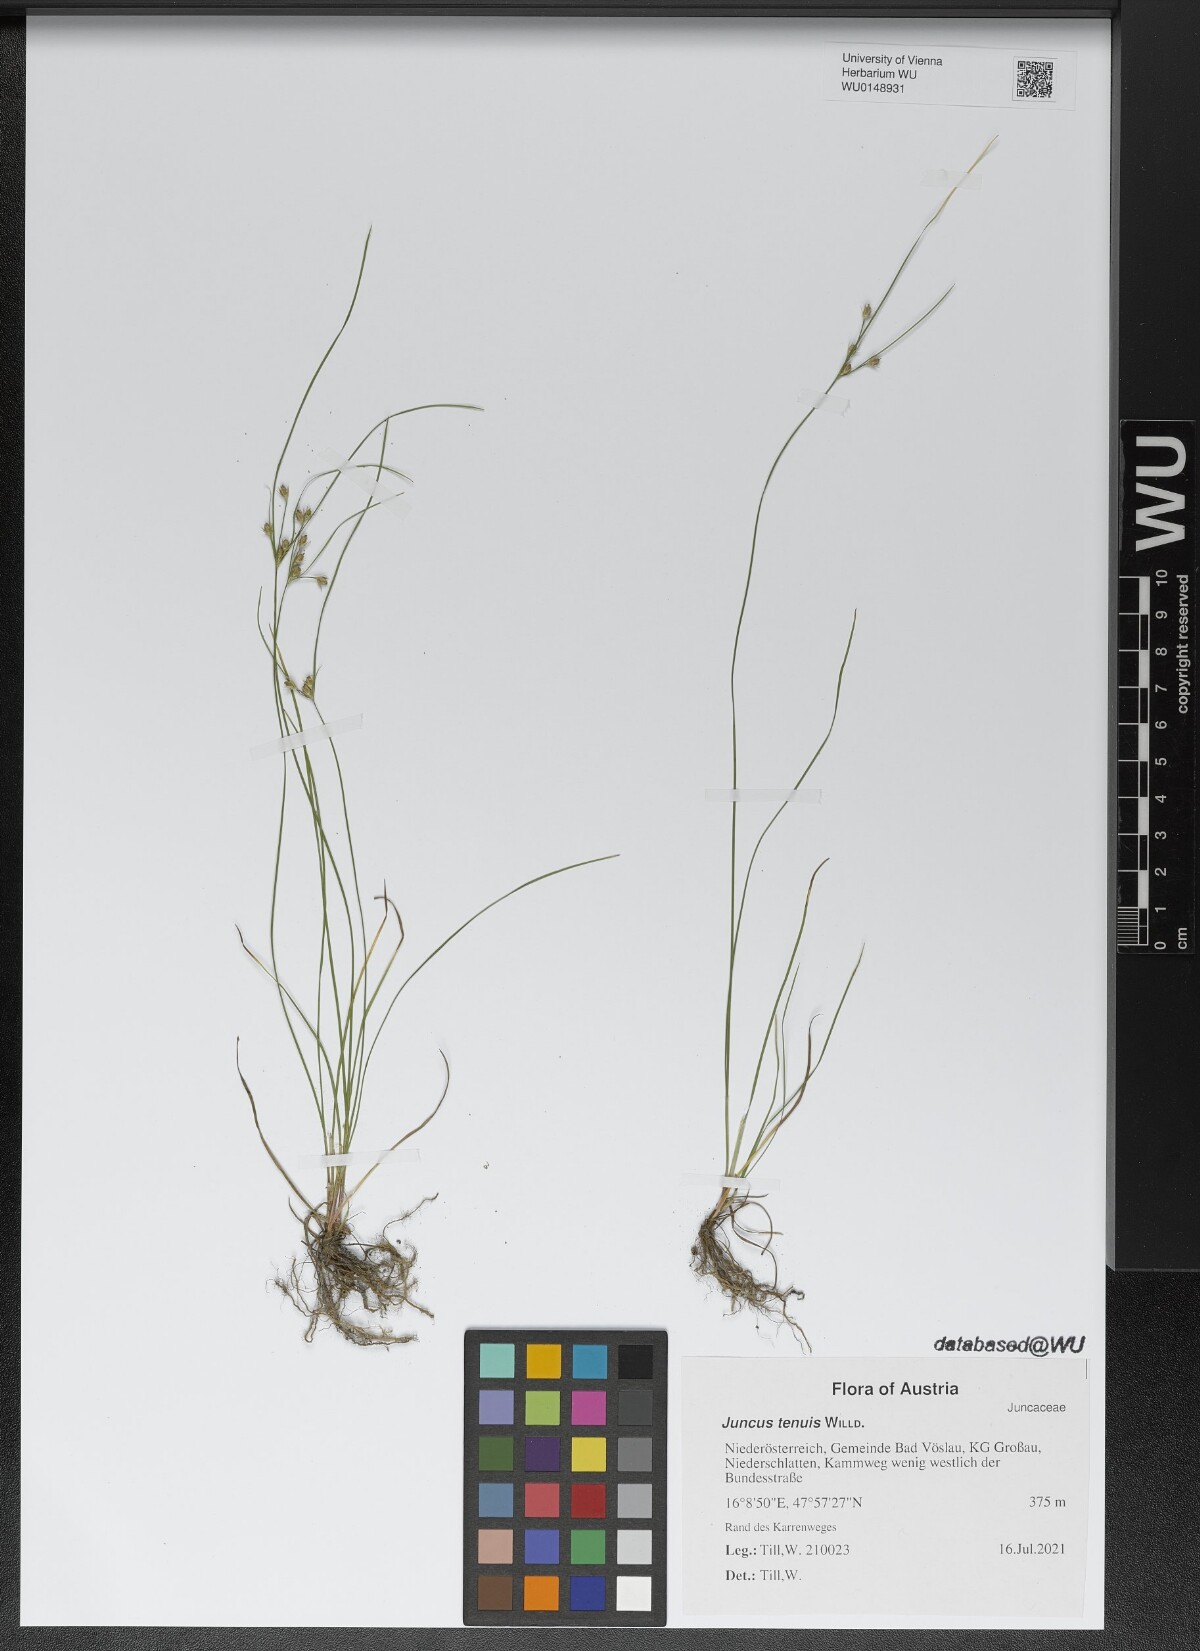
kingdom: Plantae
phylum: Tracheophyta
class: Liliopsida
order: Poales
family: Juncaceae
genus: Juncus
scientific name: Juncus tenuis
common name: Slender rush
